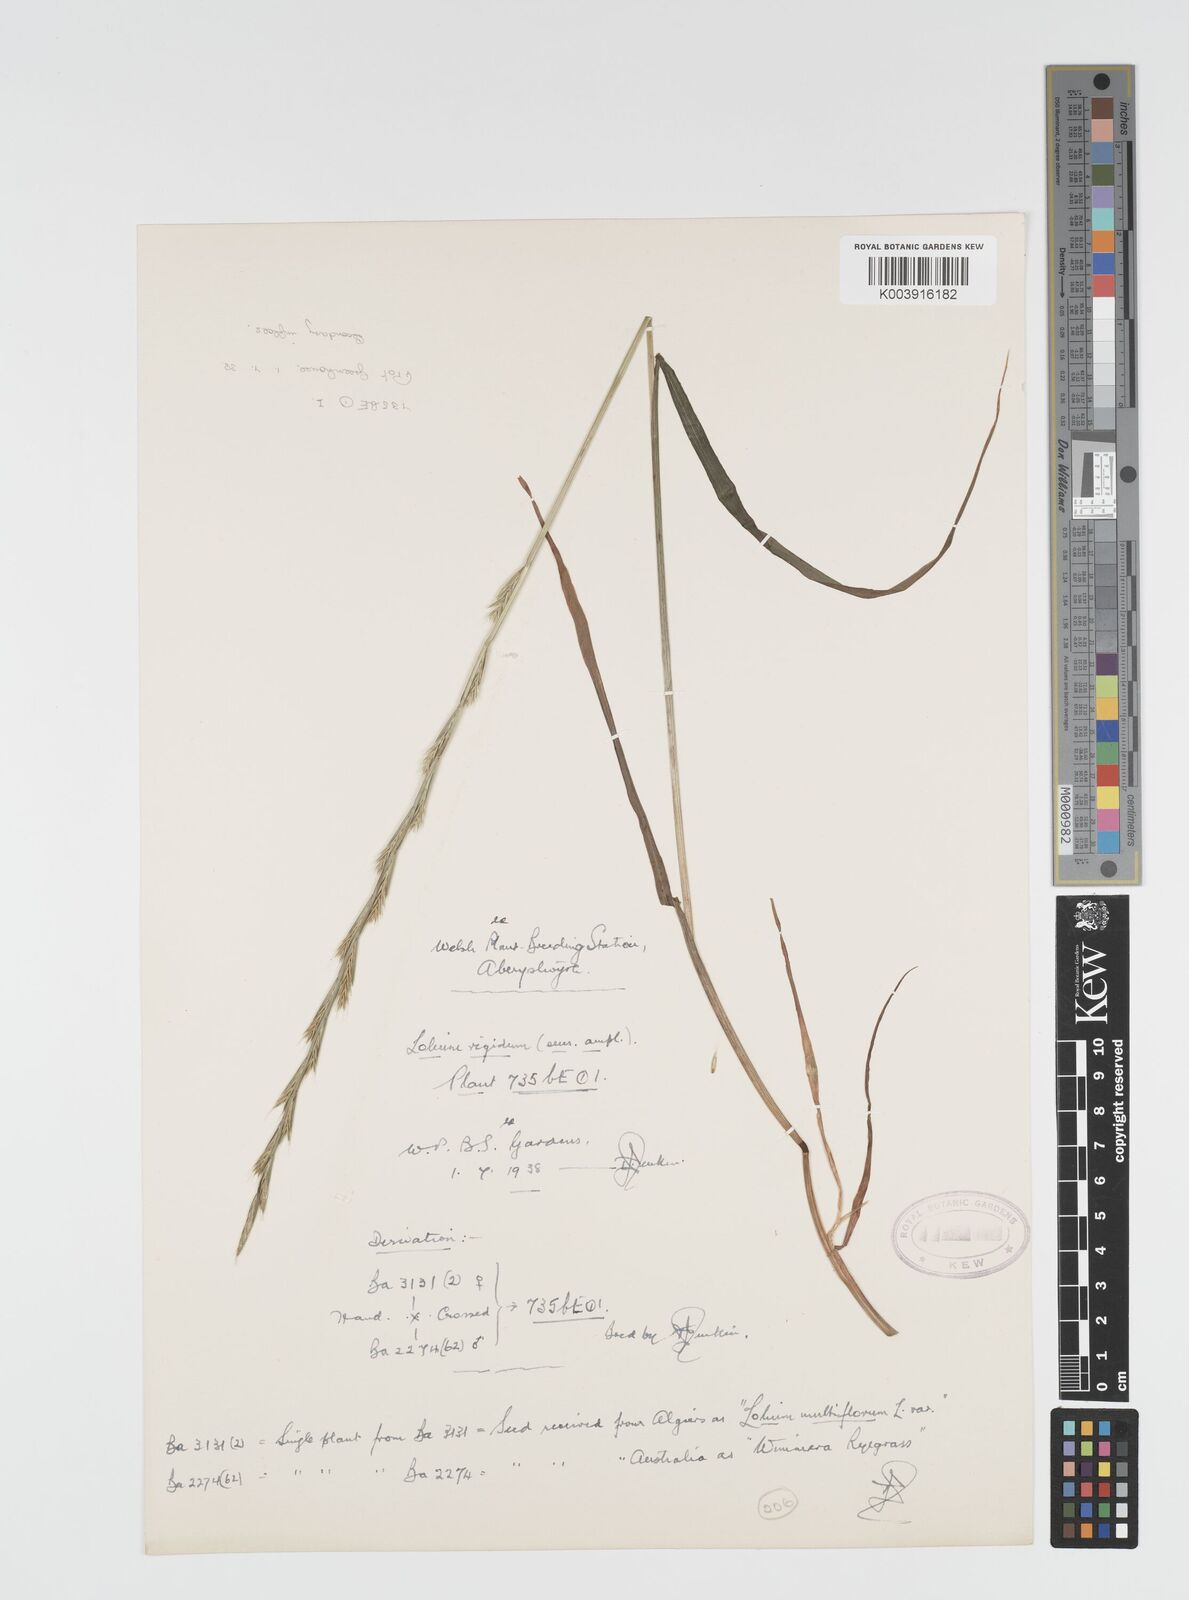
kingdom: Plantae
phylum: Tracheophyta
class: Liliopsida
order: Poales
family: Poaceae
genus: Lolium
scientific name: Lolium rigidum
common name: Wimmera ryegrass
